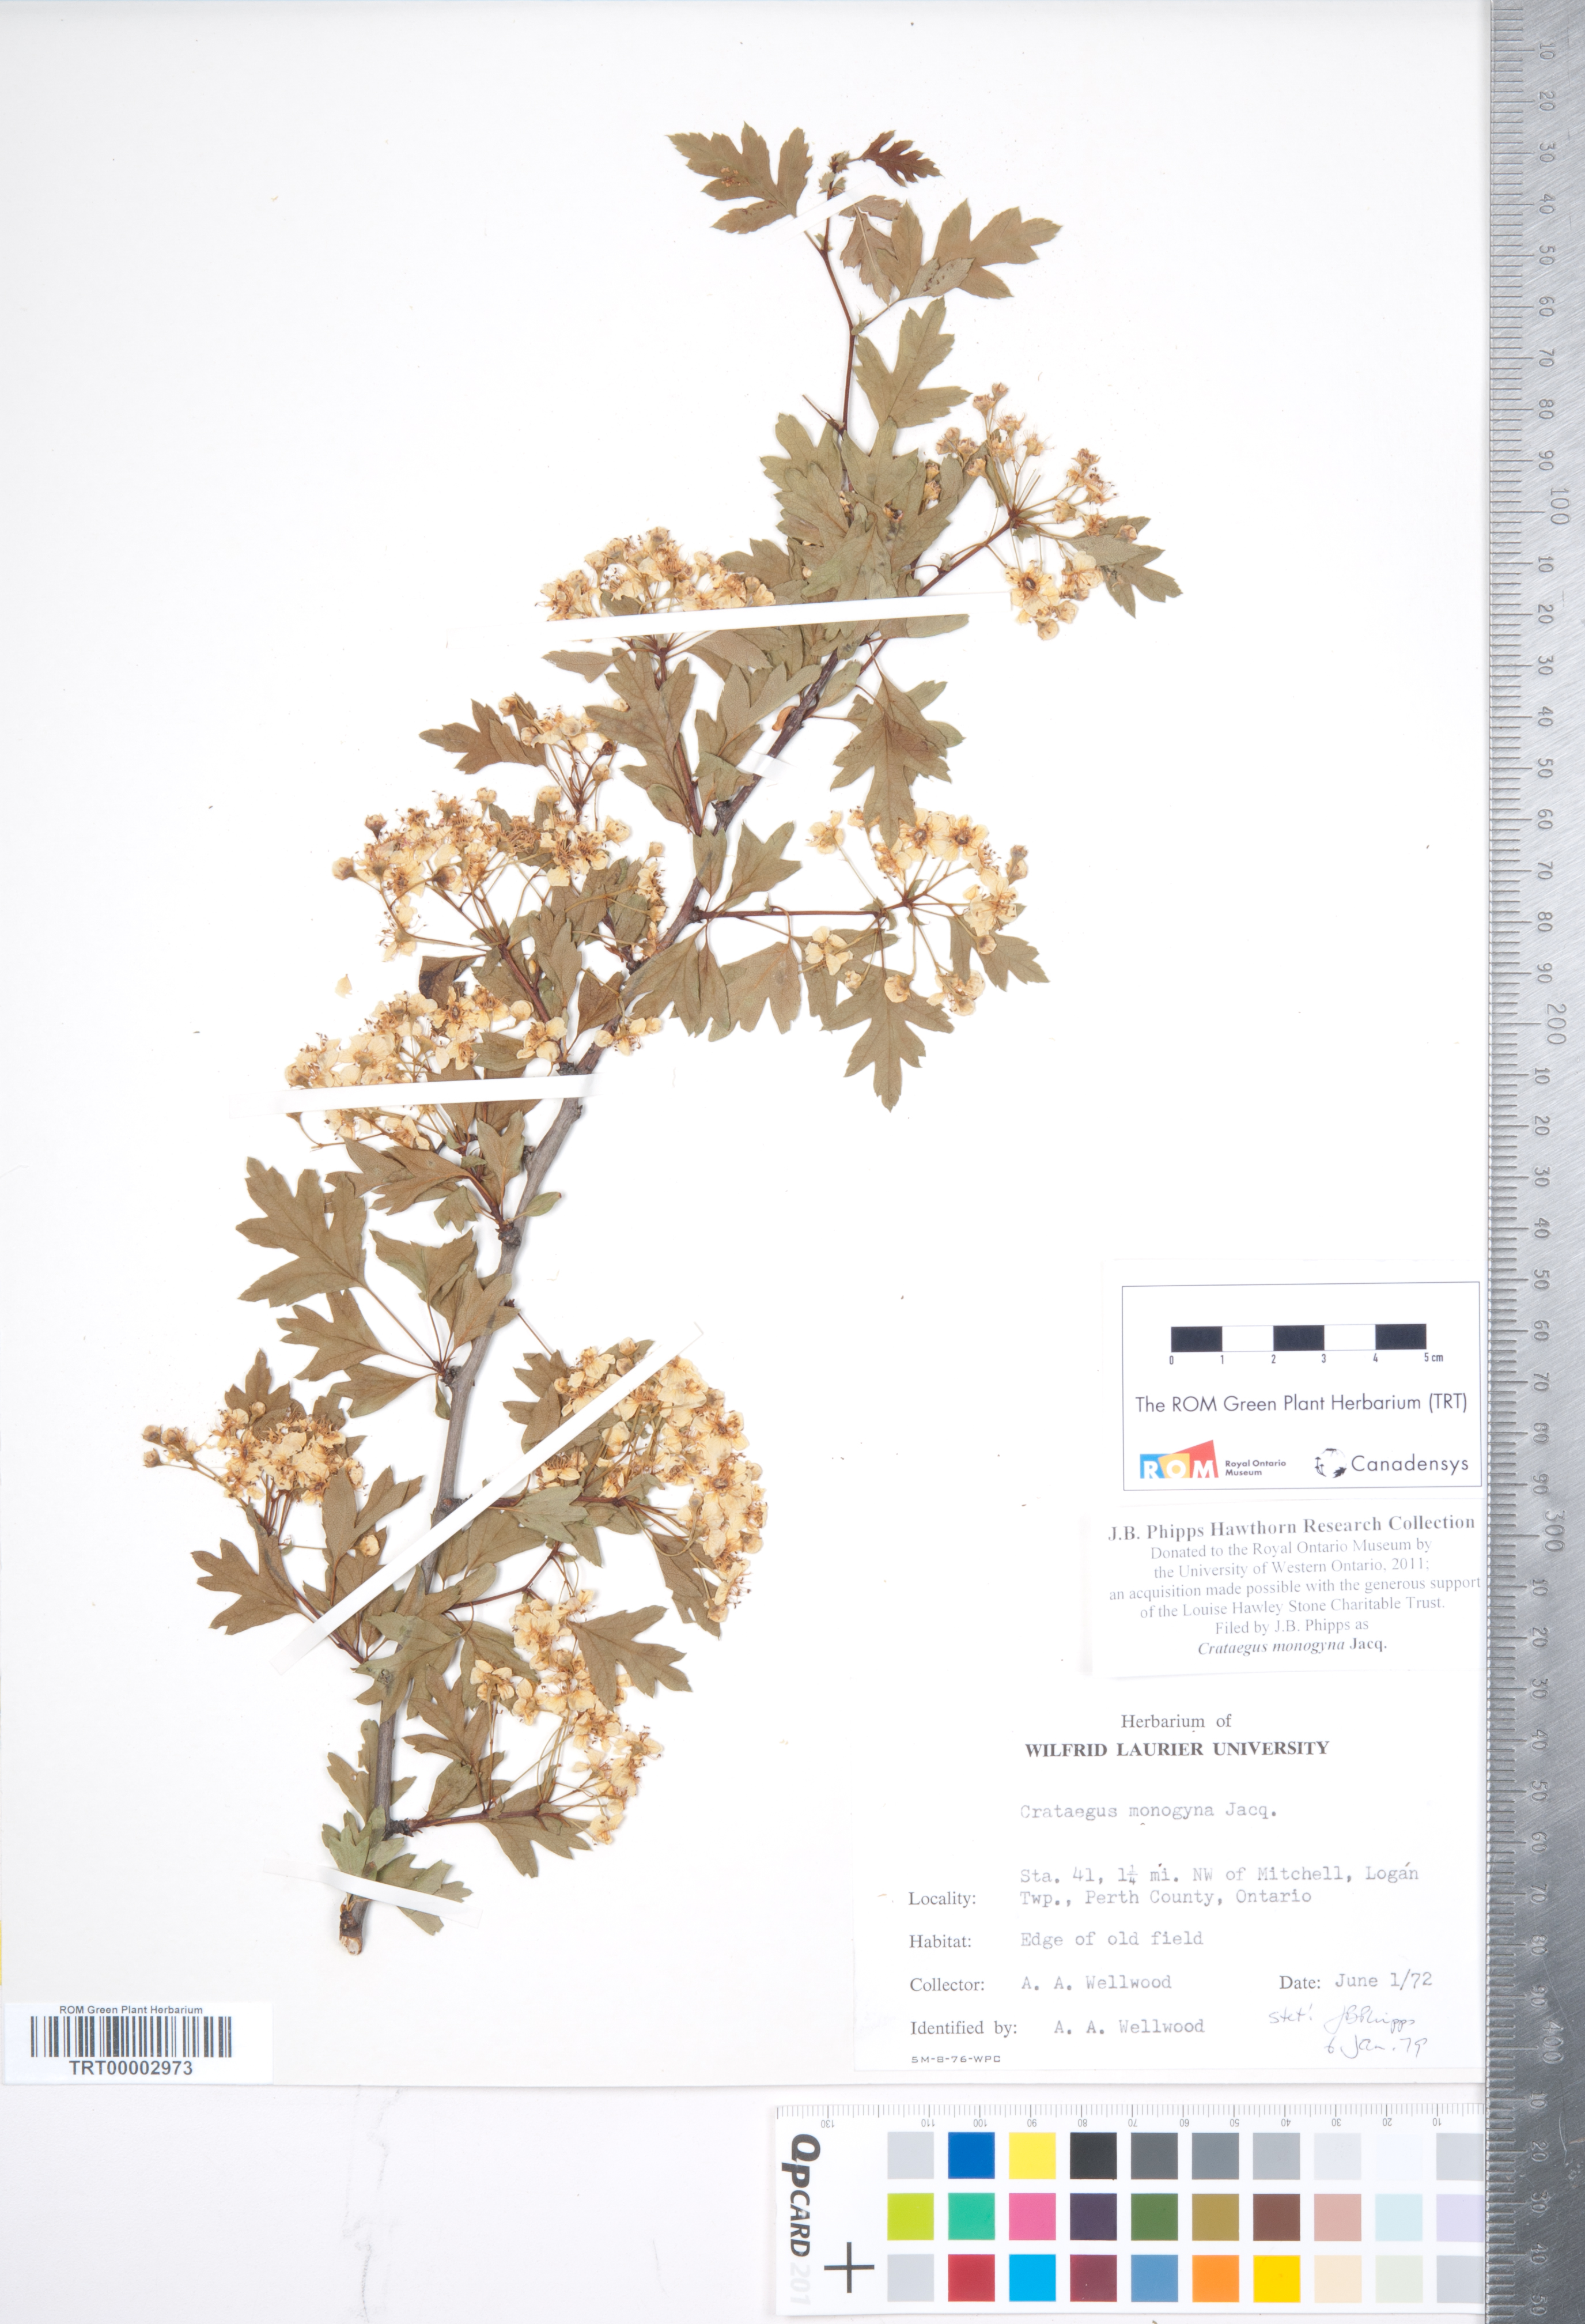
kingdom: Plantae
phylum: Tracheophyta
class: Magnoliopsida
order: Rosales
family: Rosaceae
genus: Crataegus
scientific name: Crataegus monogyna
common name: Hawthorn
